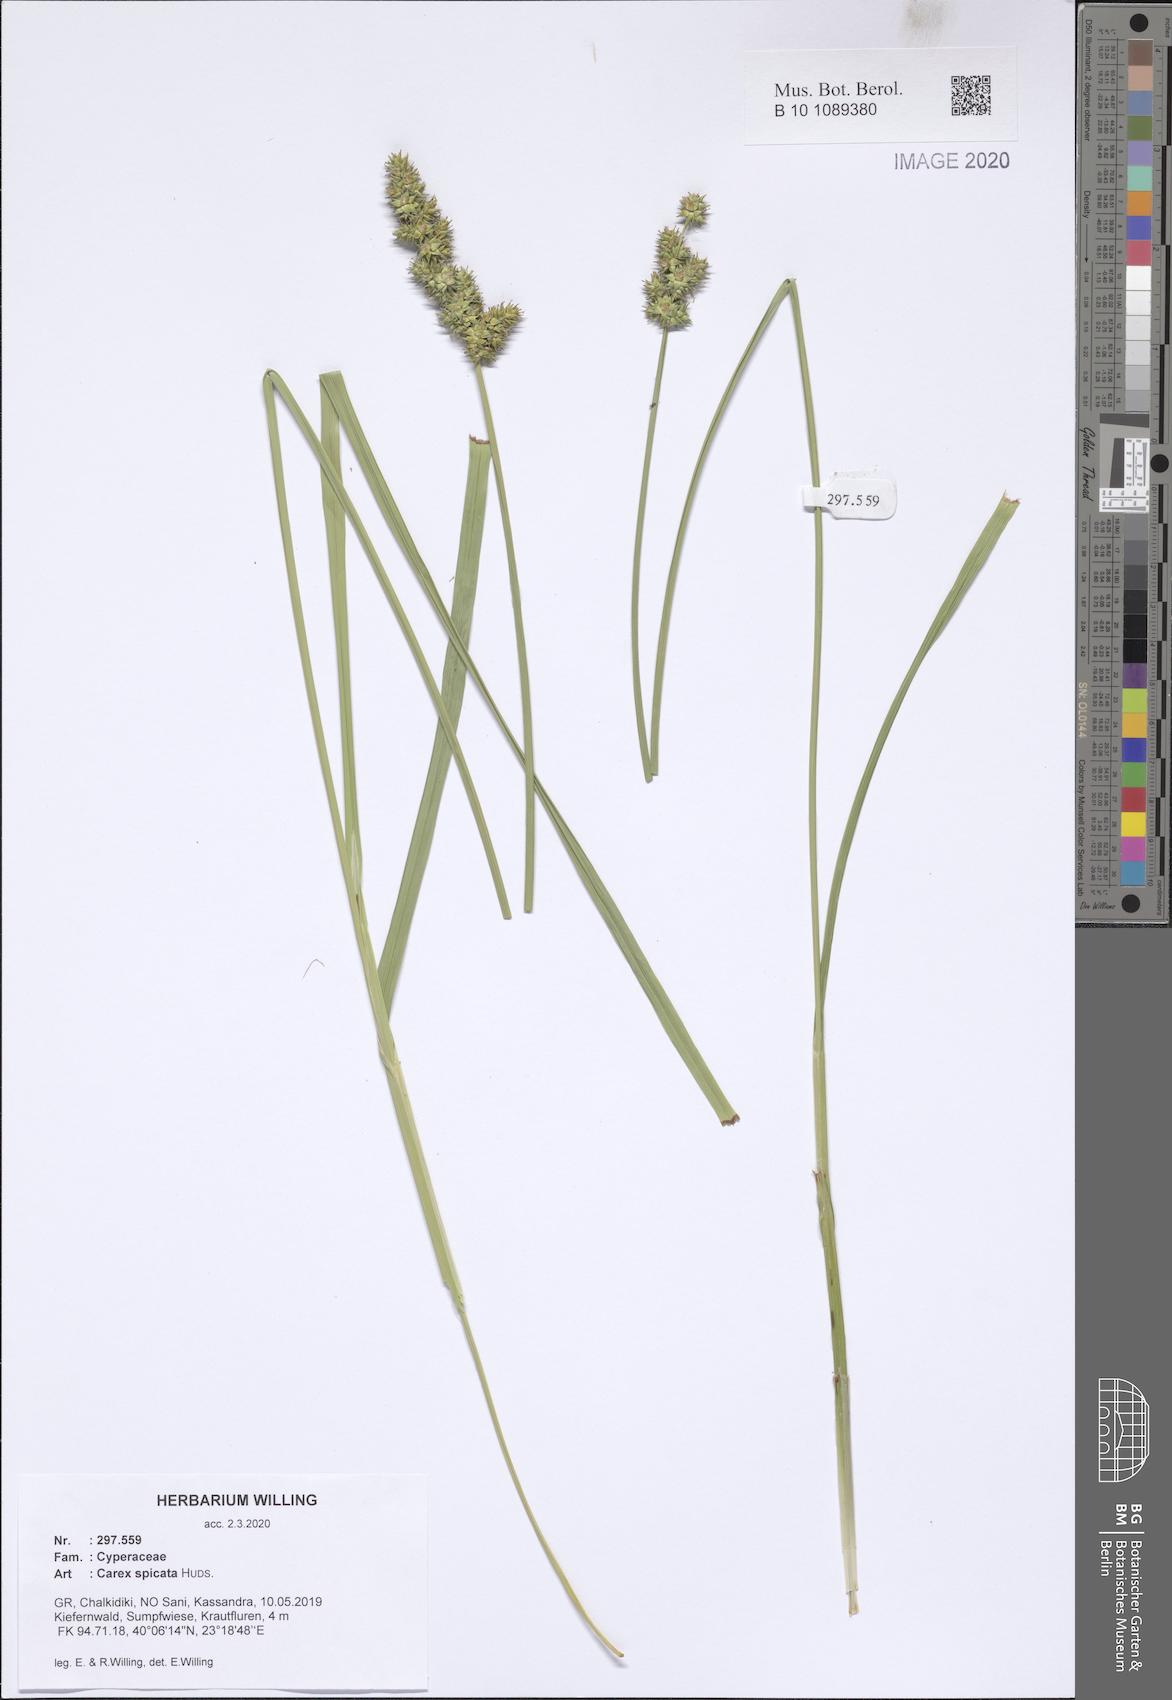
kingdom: Plantae
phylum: Tracheophyta
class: Liliopsida
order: Poales
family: Cyperaceae
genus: Carex
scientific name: Carex spicata
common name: Spiked sedge
